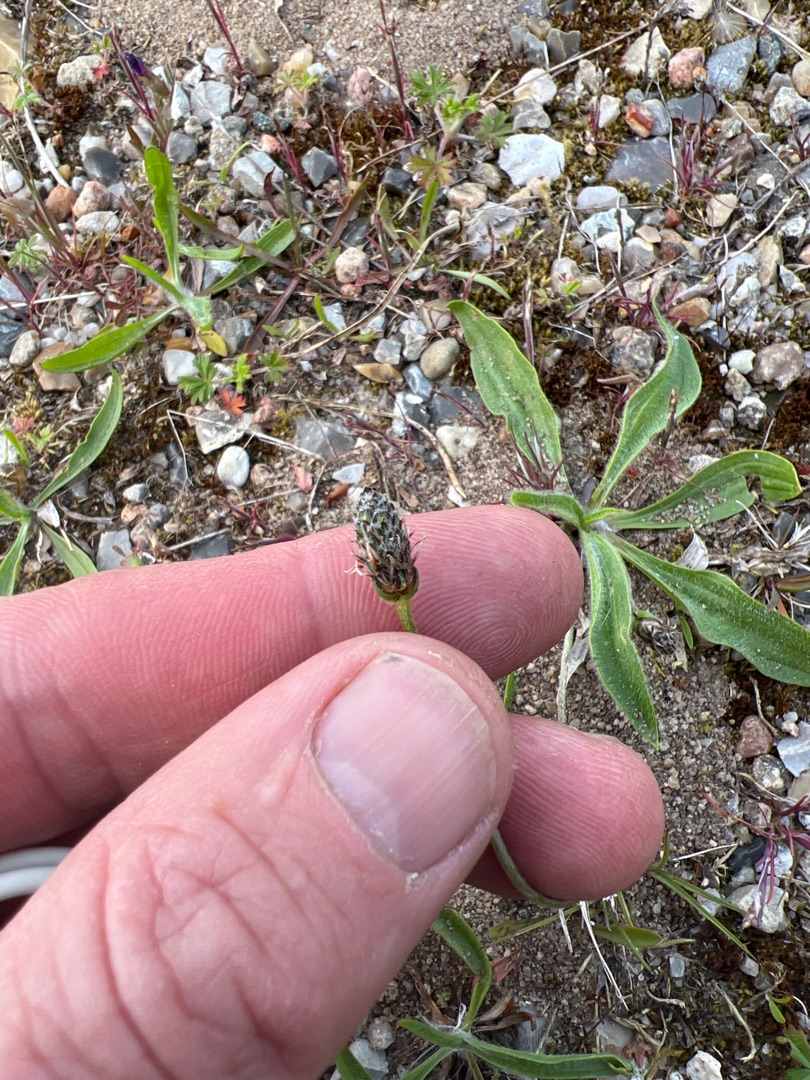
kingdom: Plantae
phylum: Tracheophyta
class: Magnoliopsida
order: Lamiales
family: Plantaginaceae
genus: Plantago
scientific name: Plantago lanceolata
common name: Lancet-vejbred
